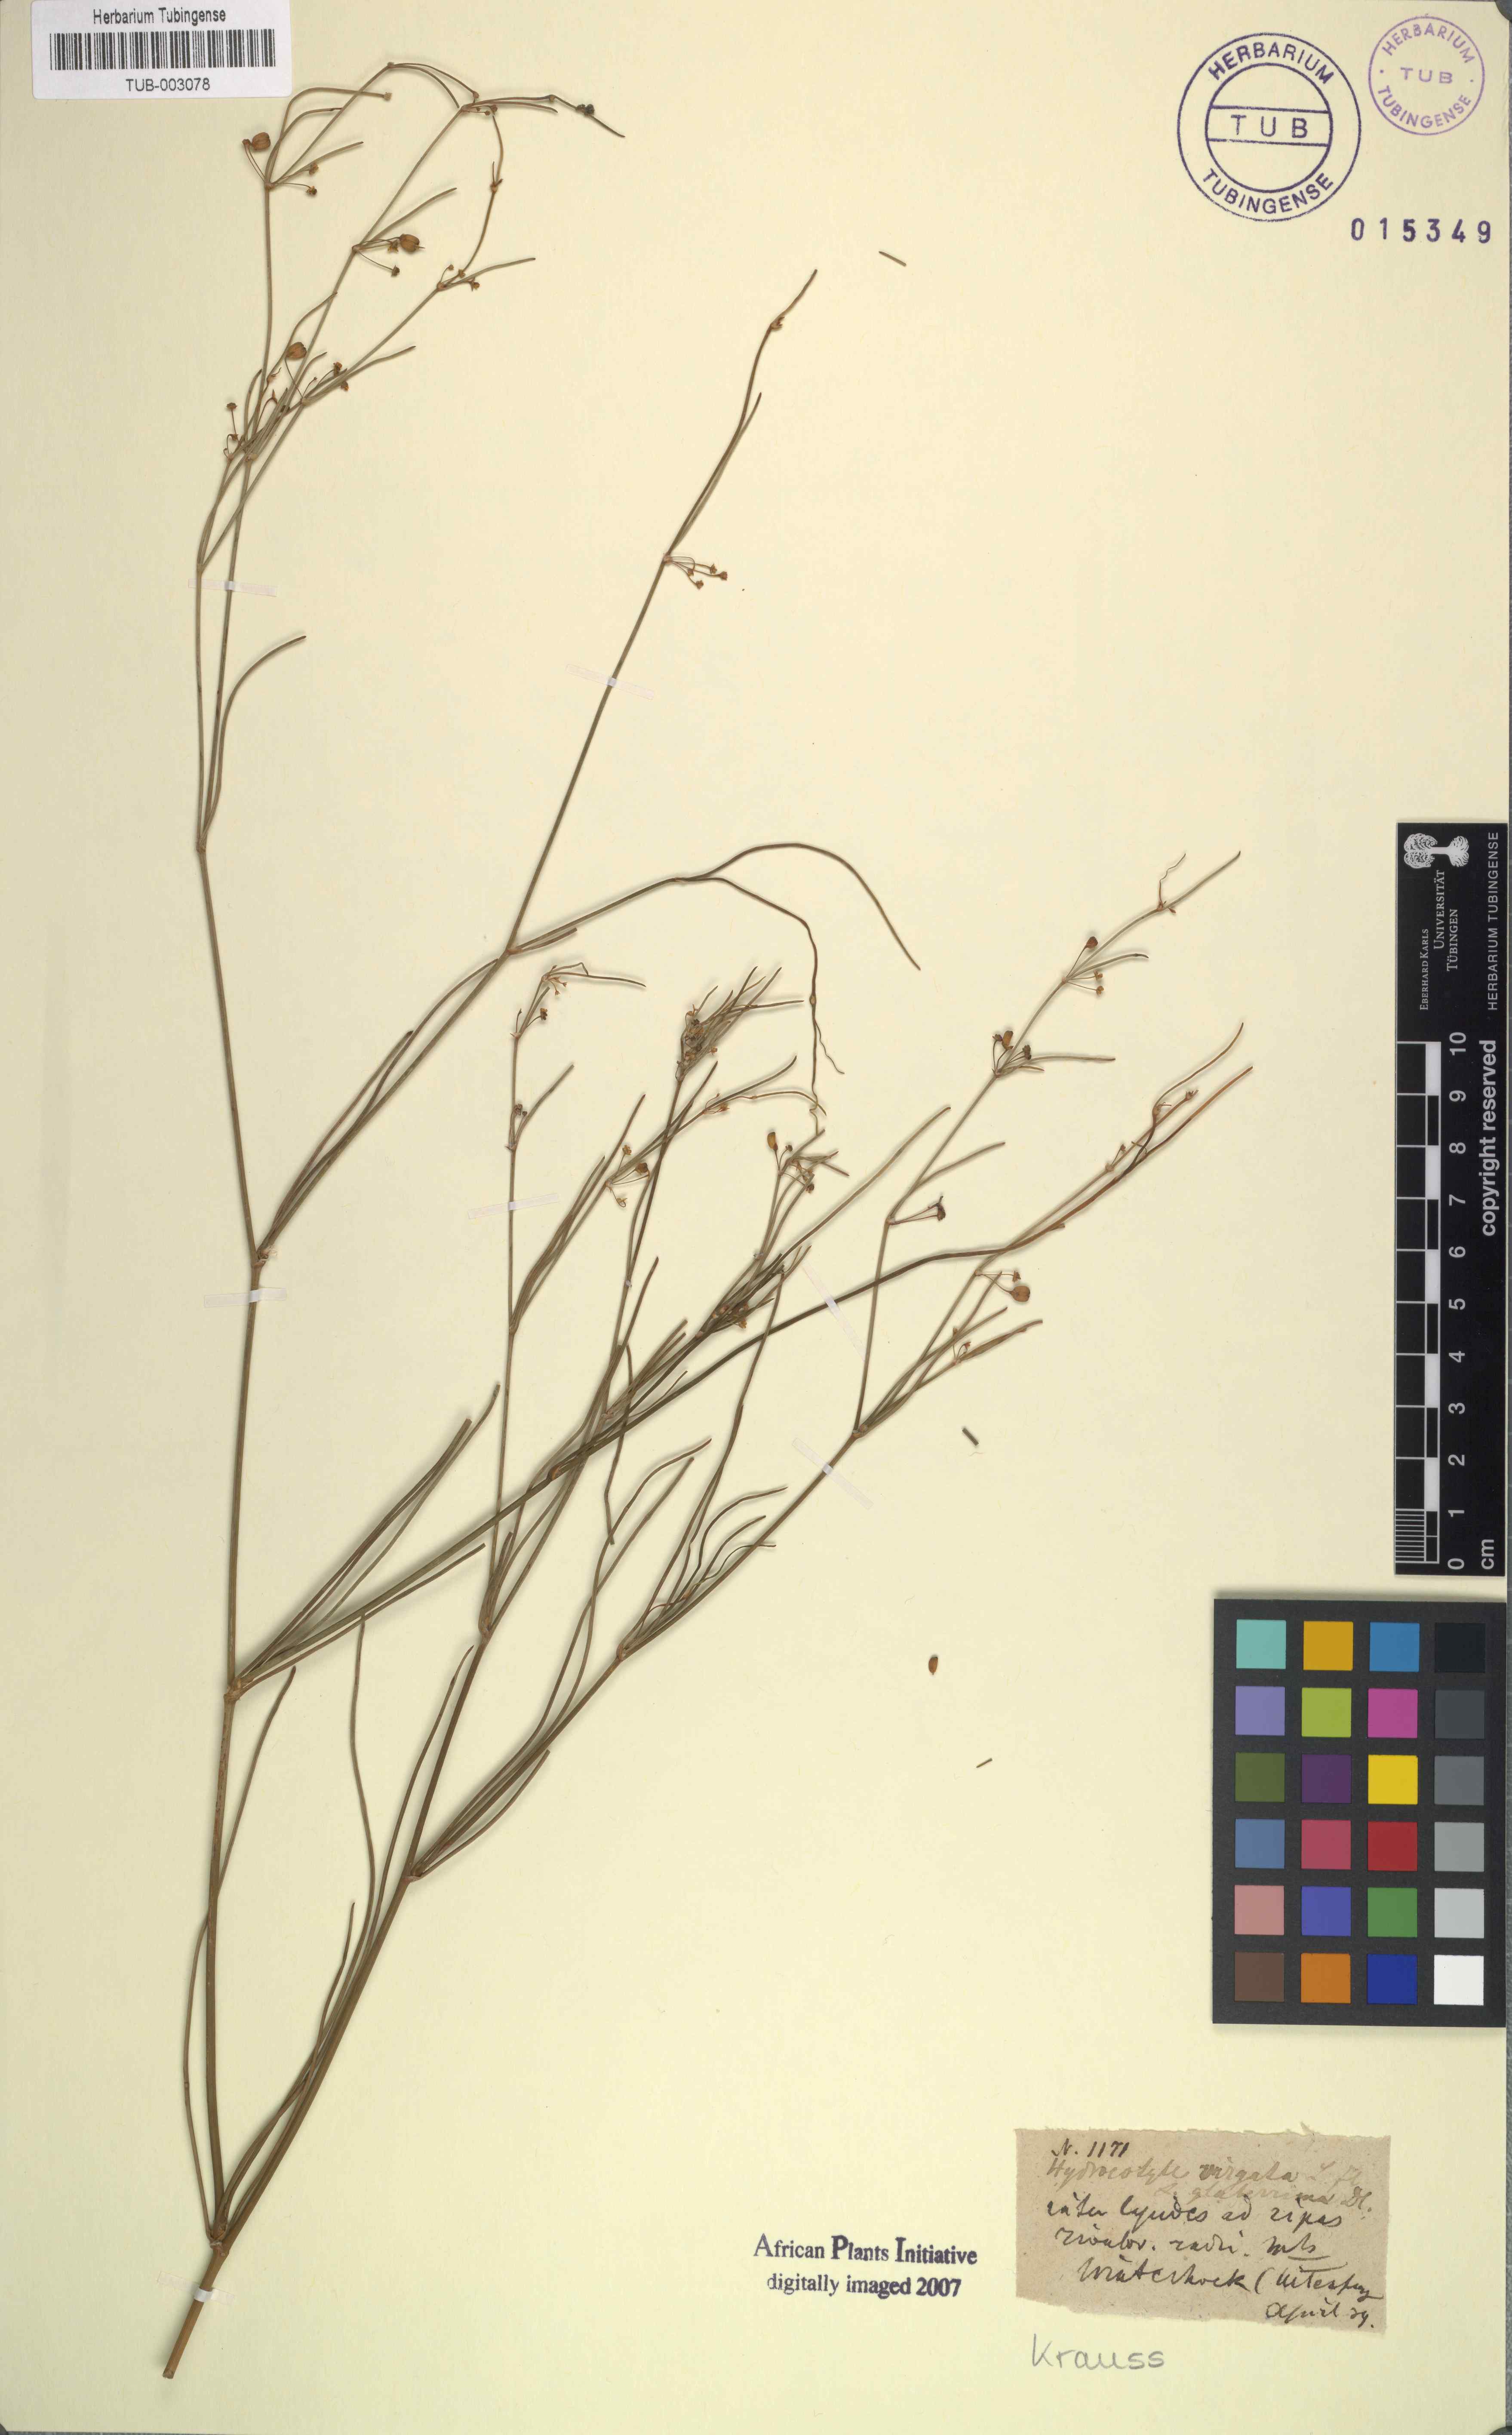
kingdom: Plantae
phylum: Tracheophyta
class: Magnoliopsida
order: Apiales
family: Apiaceae
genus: Centella
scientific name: Centella virgata
